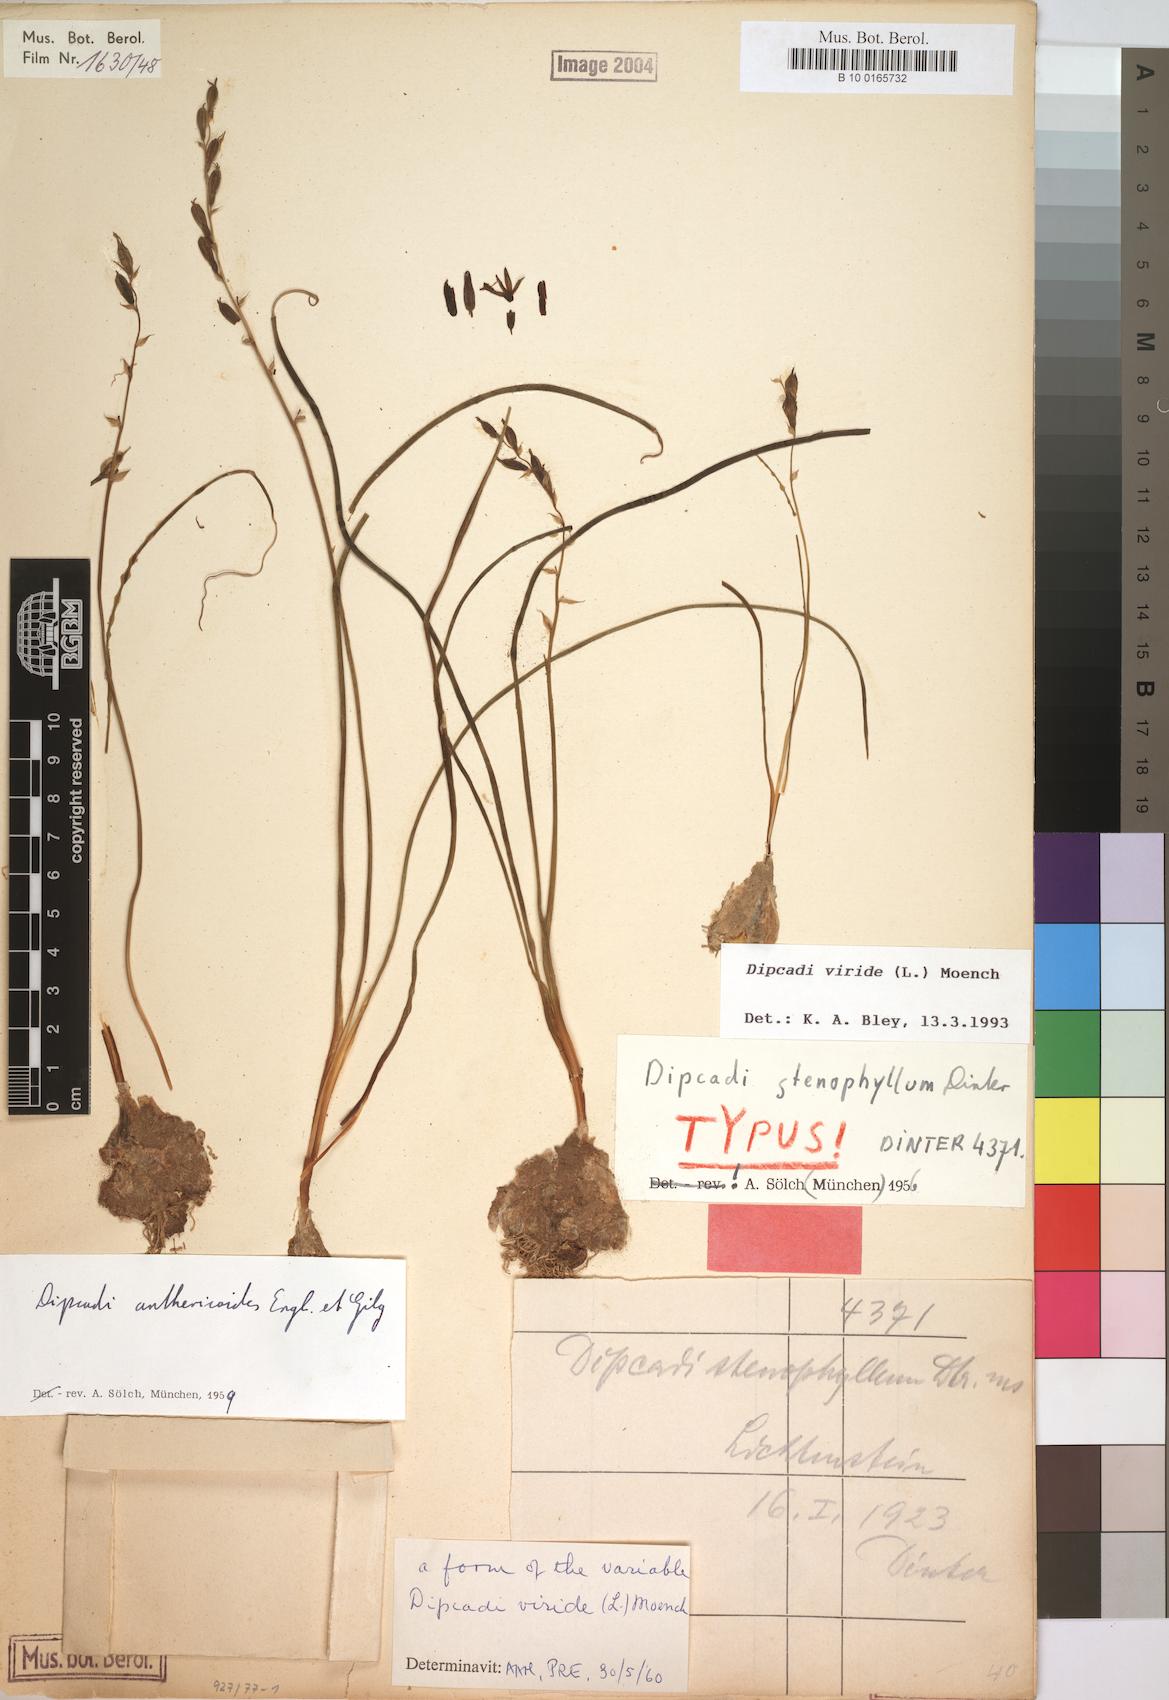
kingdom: Plantae
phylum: Tracheophyta
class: Liliopsida
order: Asparagales
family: Asparagaceae
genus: Dipcadi
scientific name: Dipcadi viride
